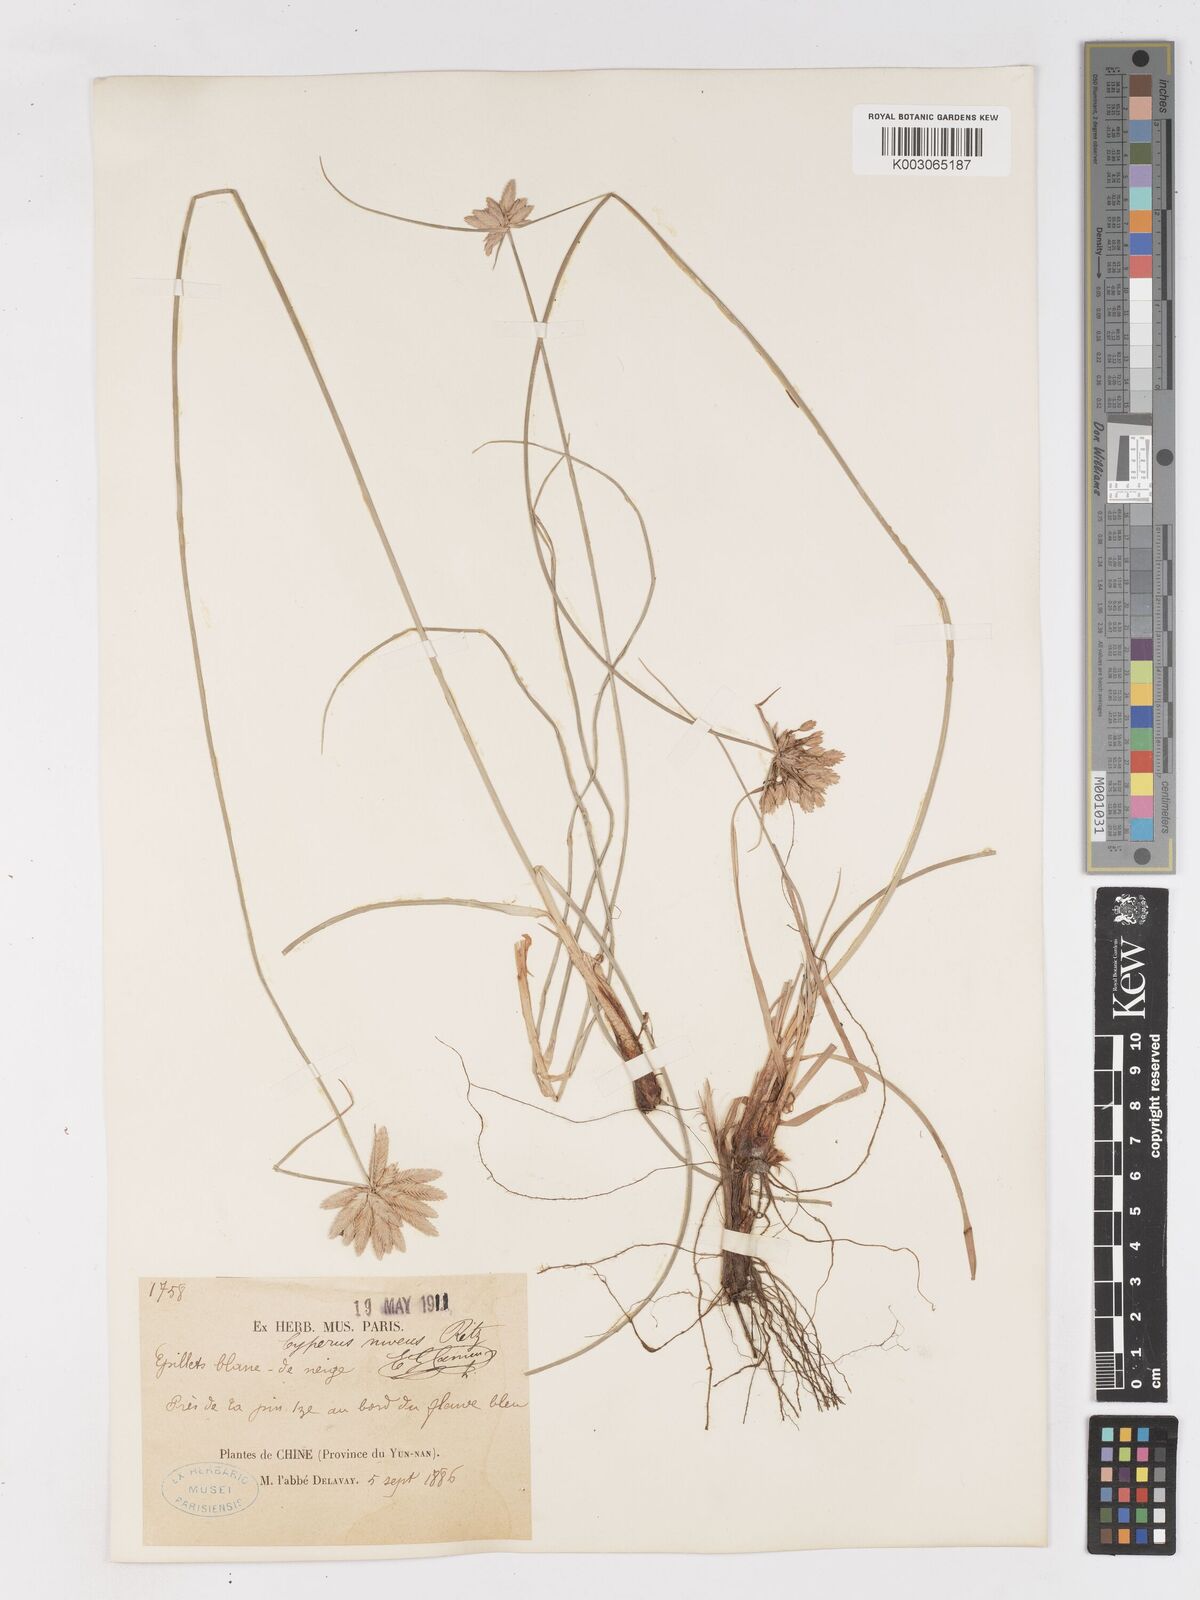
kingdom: Plantae
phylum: Tracheophyta
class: Liliopsida
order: Poales
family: Cyperaceae
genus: Cyperus
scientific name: Cyperus niveus
